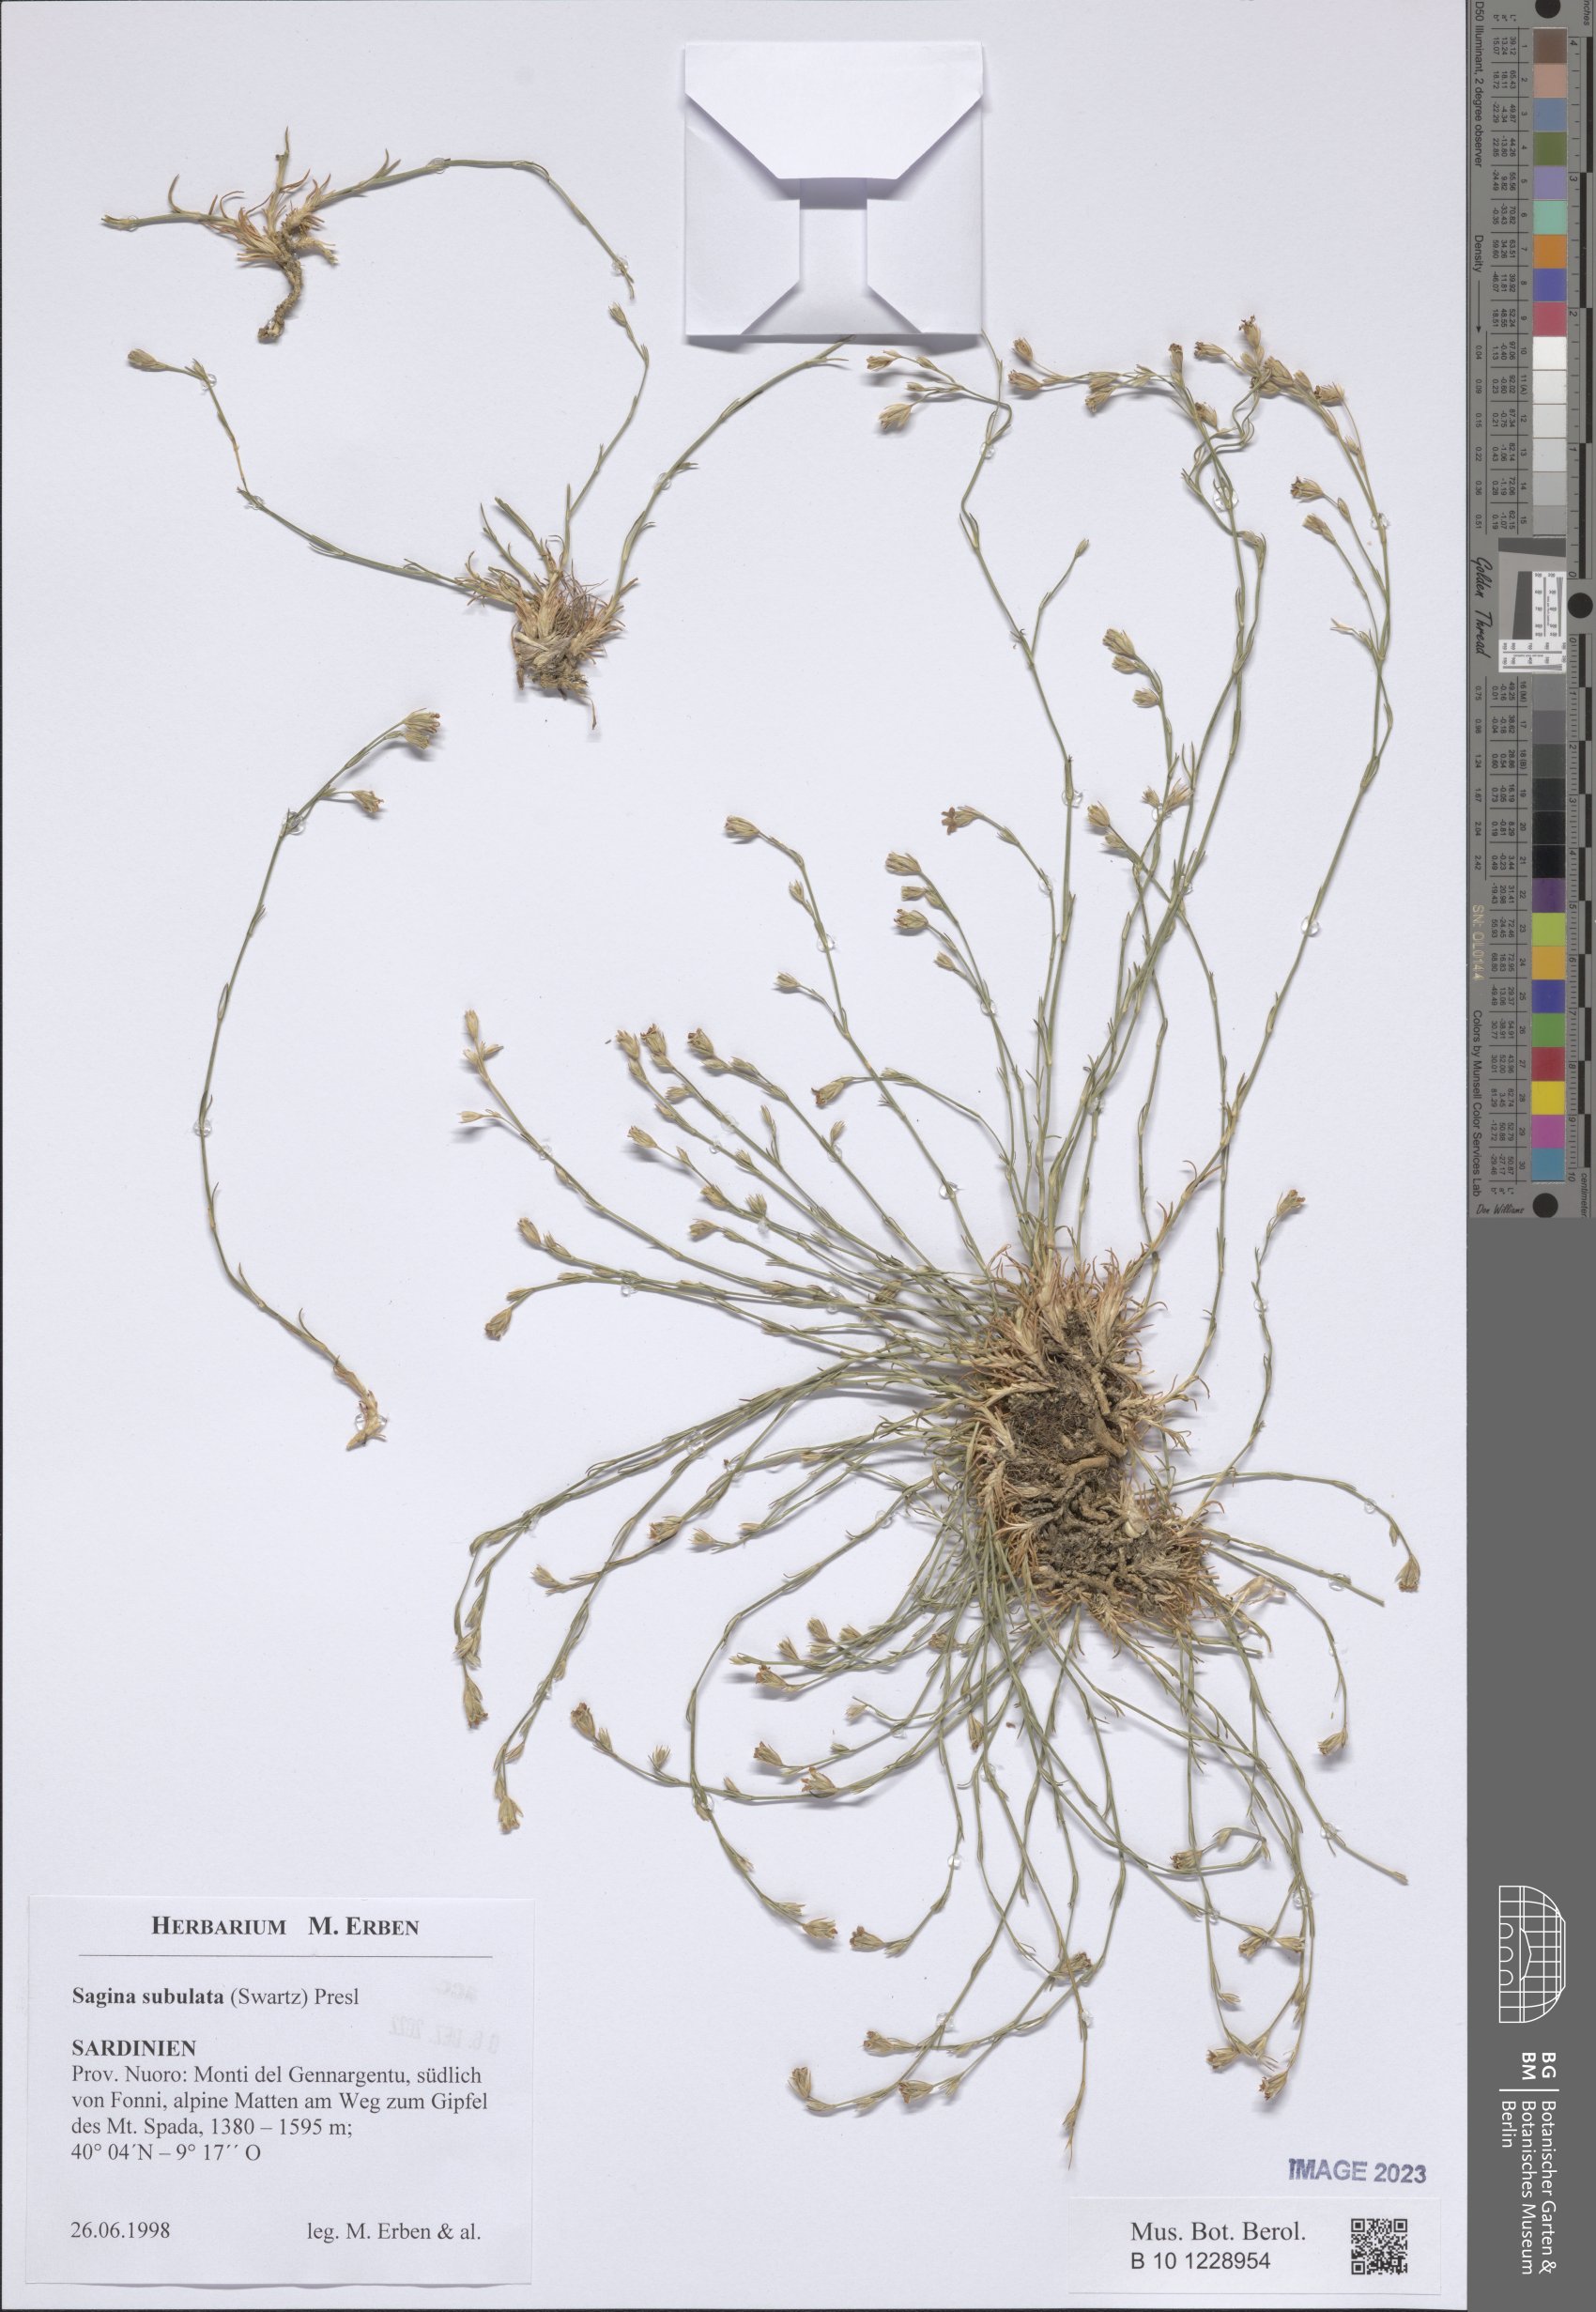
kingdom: Plantae
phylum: Tracheophyta
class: Magnoliopsida
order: Caryophyllales
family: Caryophyllaceae
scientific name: Caryophyllaceae
